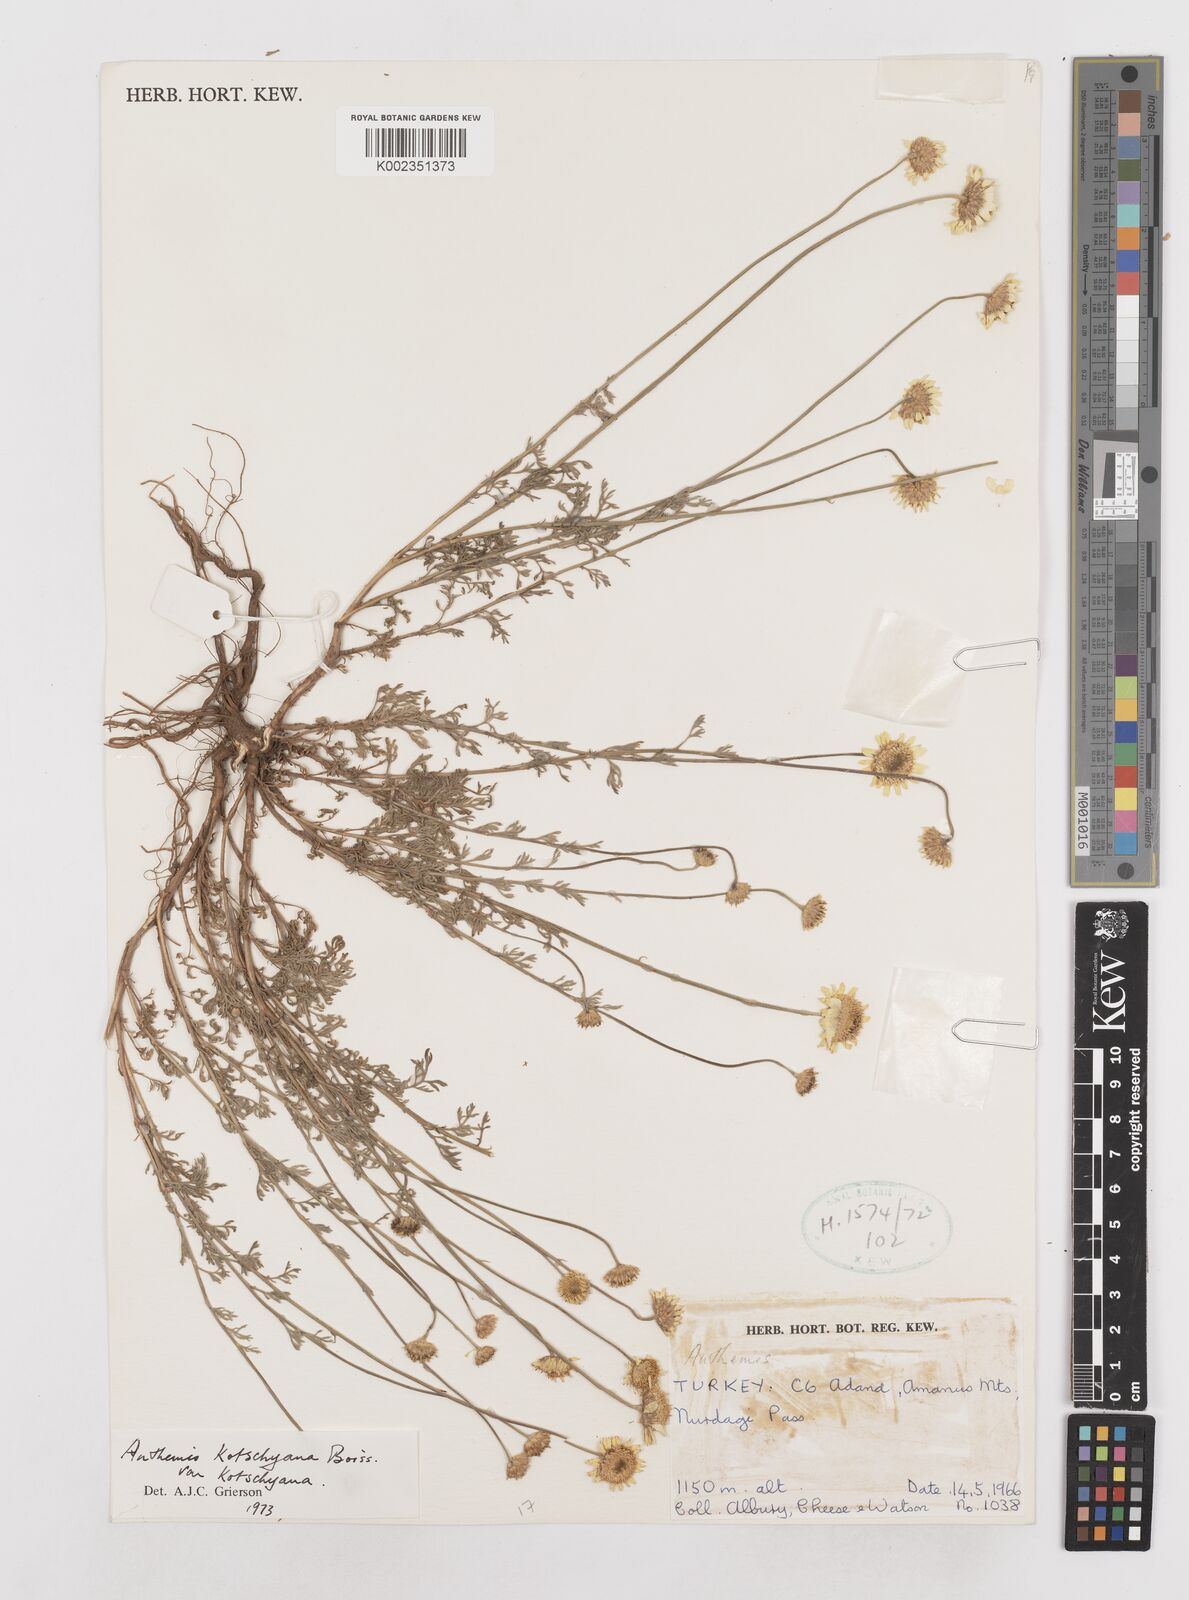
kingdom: Plantae
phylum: Tracheophyta
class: Magnoliopsida
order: Asterales
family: Asteraceae
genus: Anthemis
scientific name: Anthemis kotschyana
